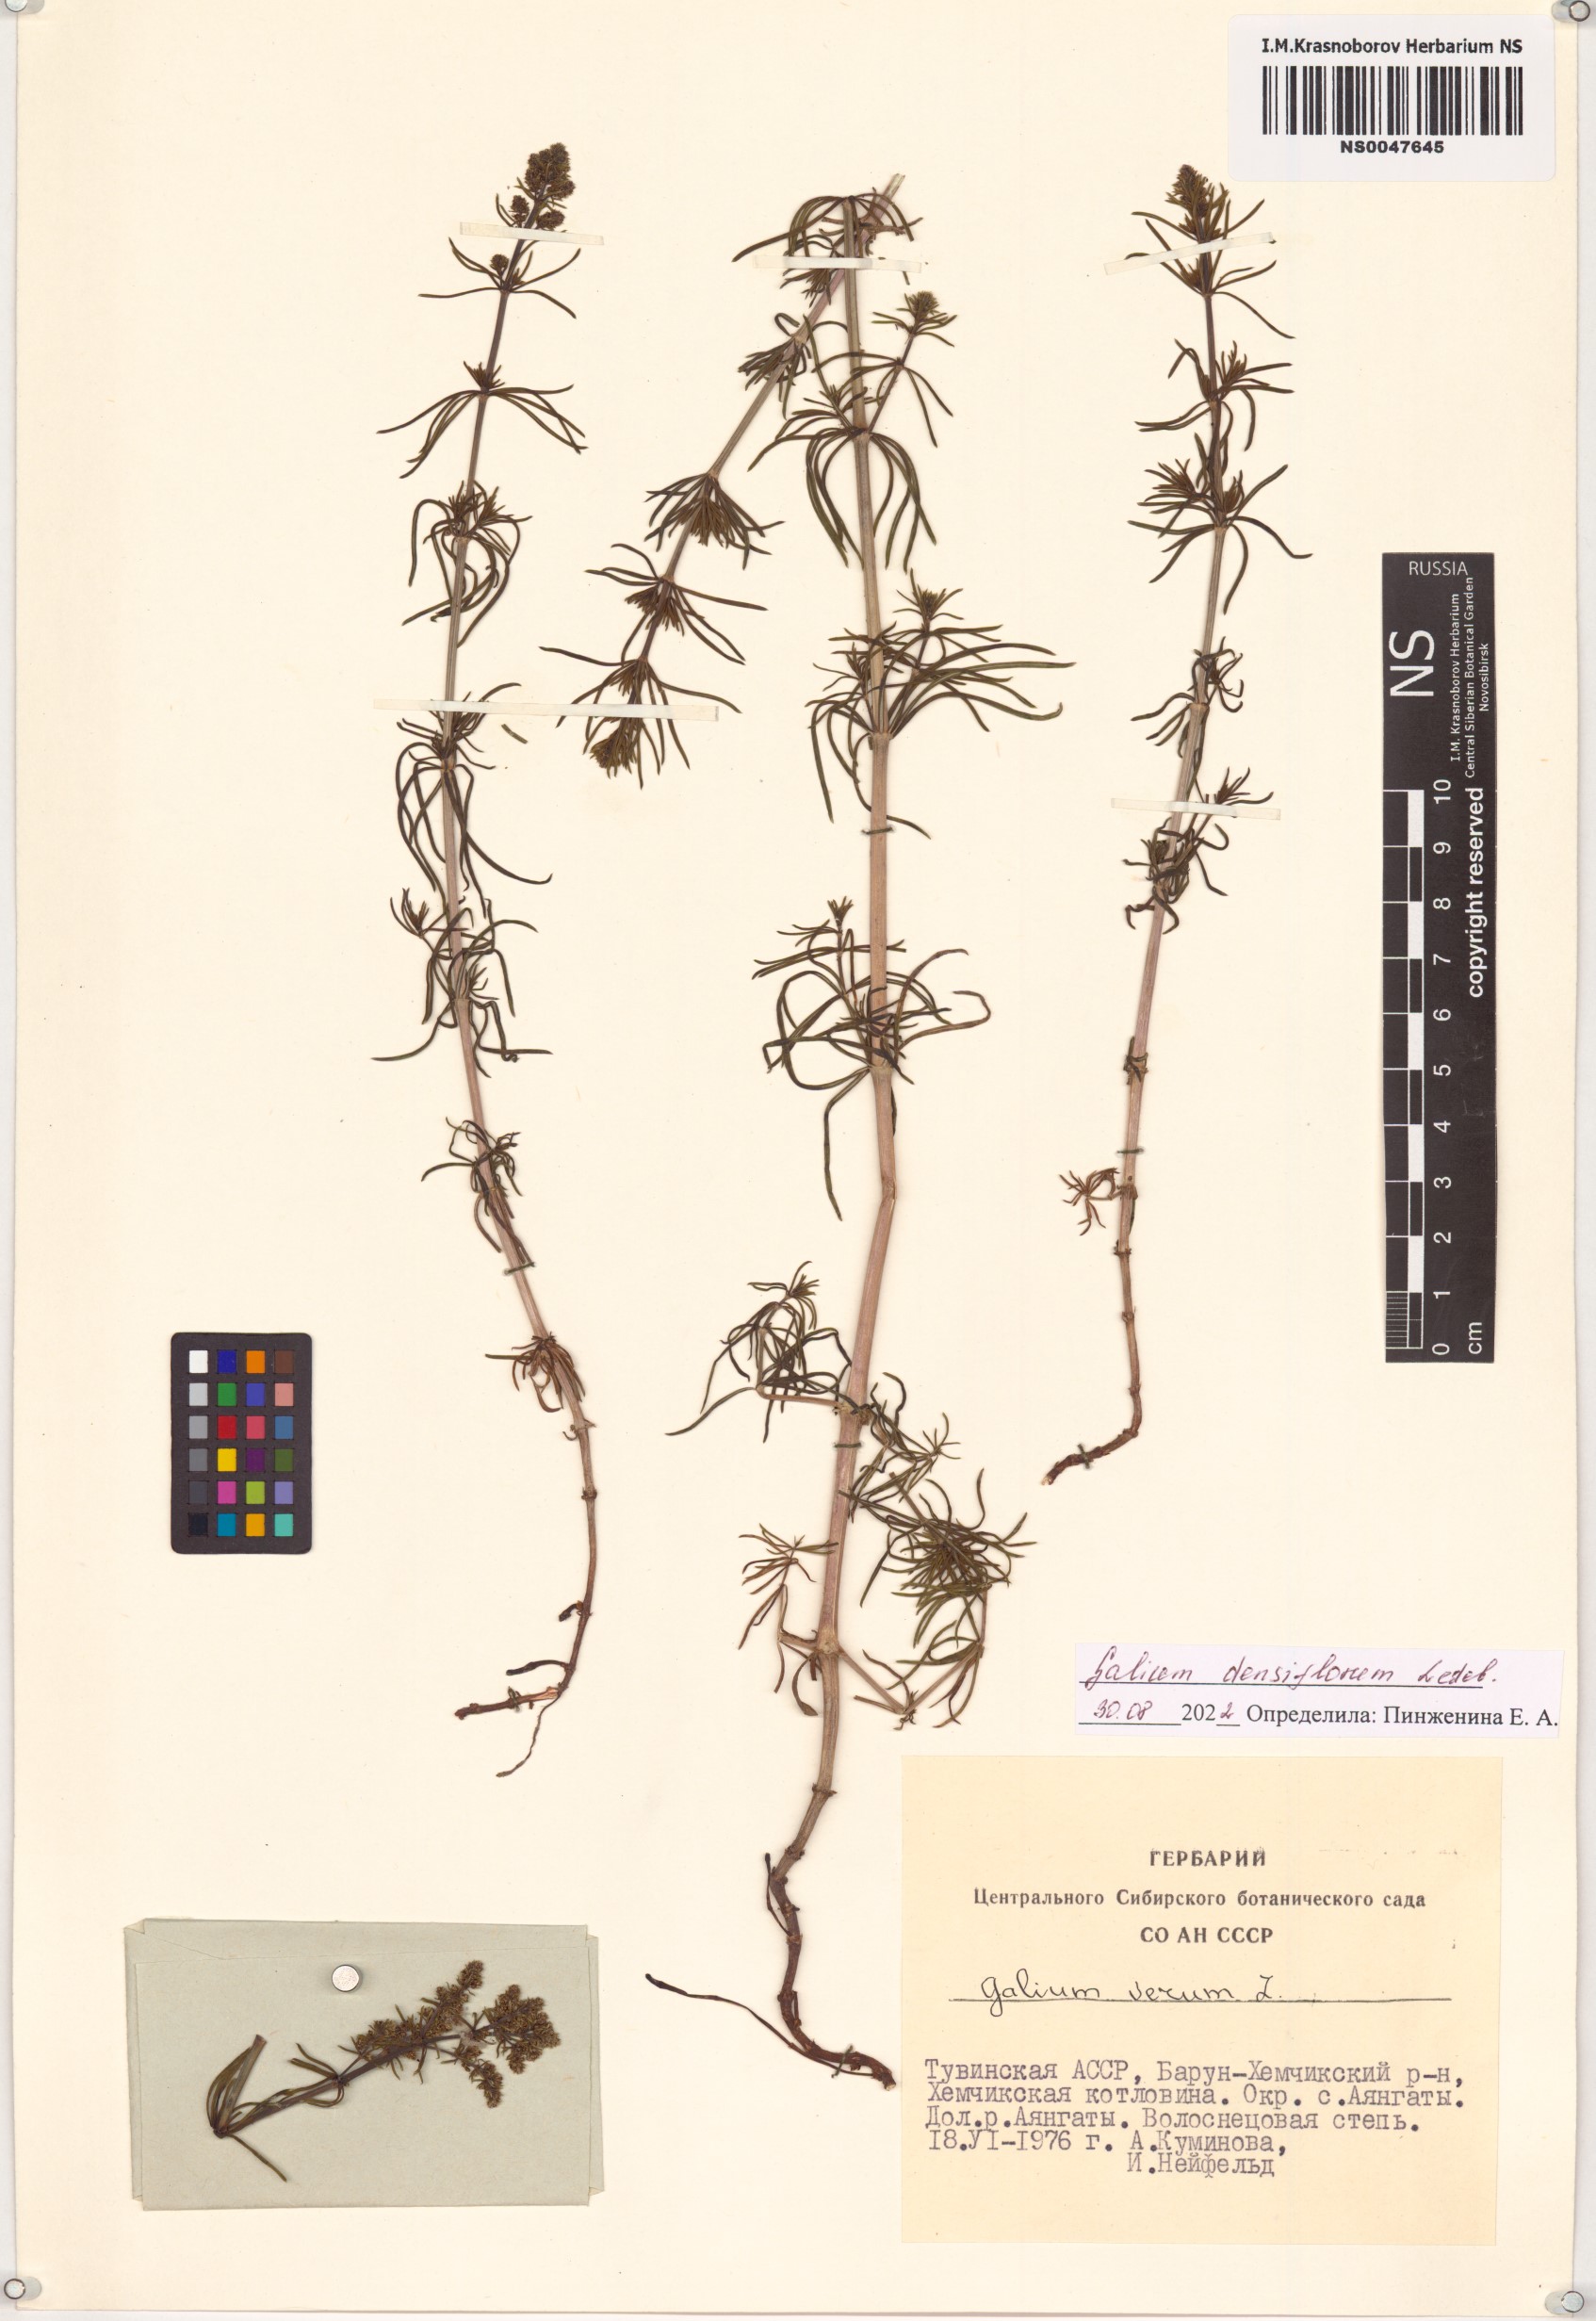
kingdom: Plantae
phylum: Tracheophyta
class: Magnoliopsida
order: Gentianales
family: Rubiaceae
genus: Galium
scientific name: Galium densiflorum
